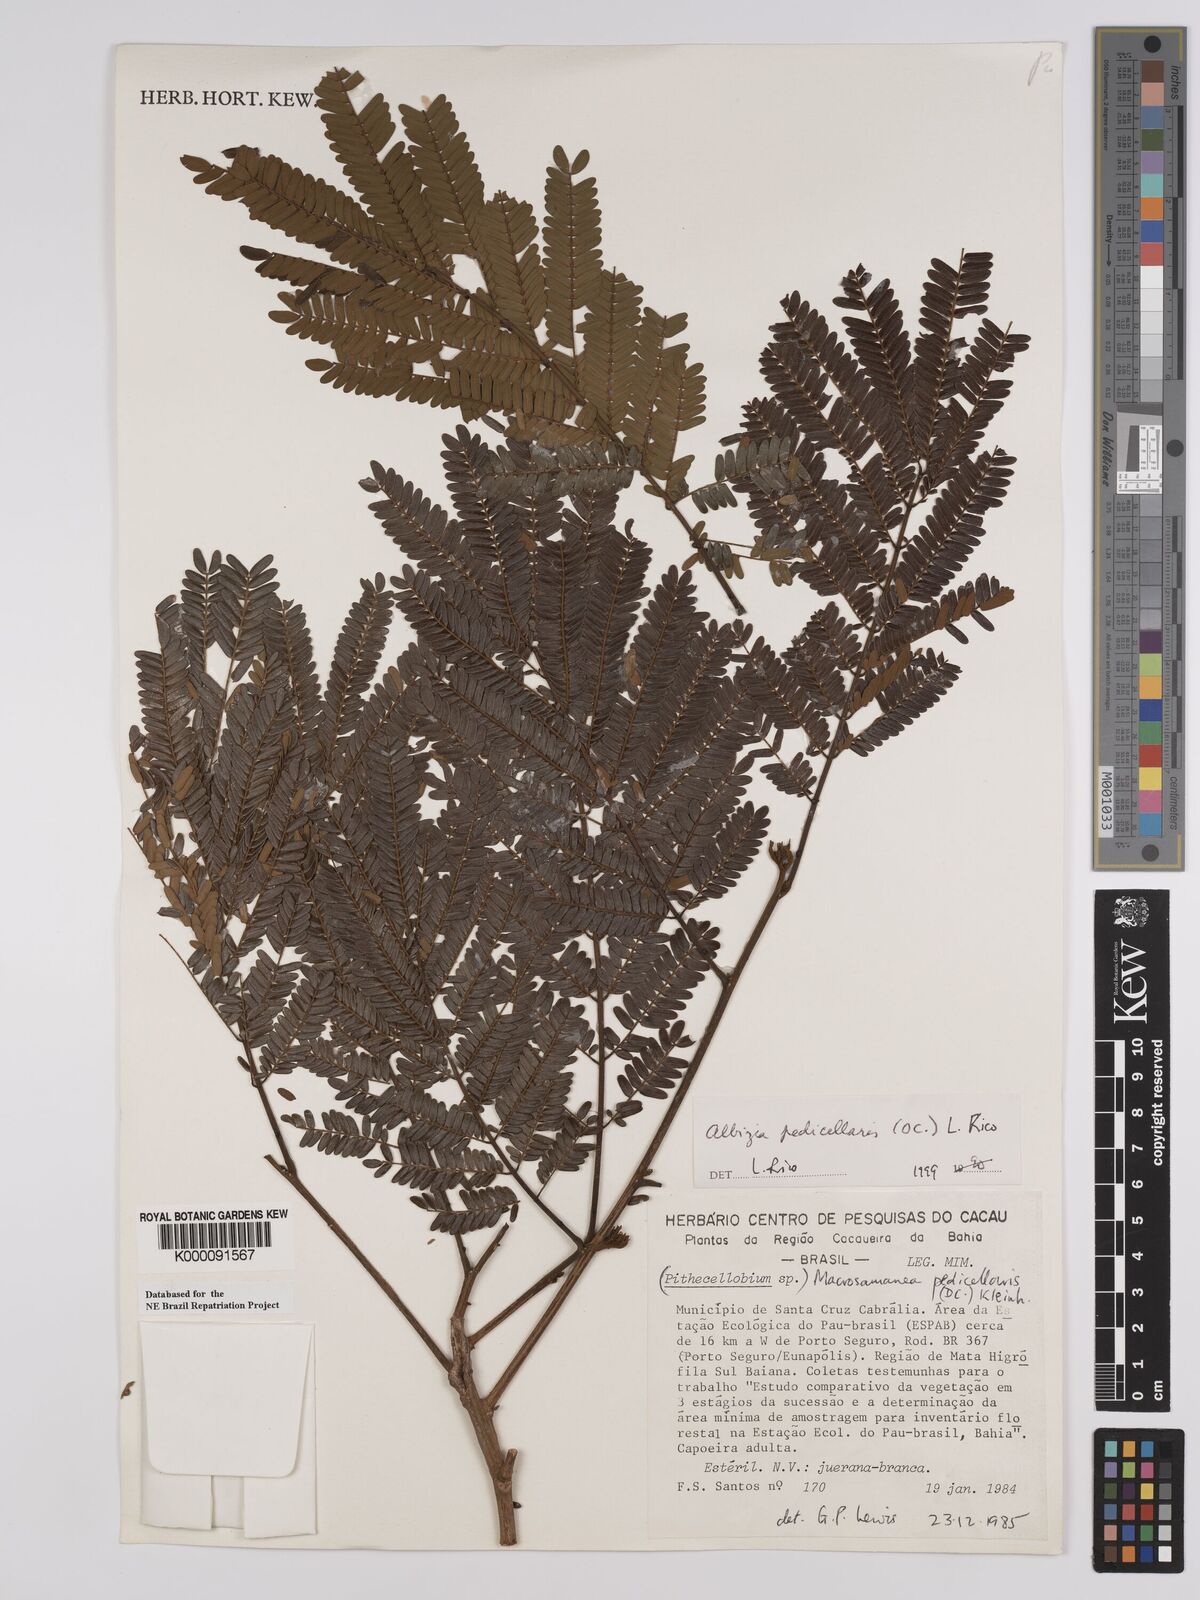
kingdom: Plantae
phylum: Tracheophyta
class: Magnoliopsida
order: Fabales
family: Fabaceae
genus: Balizia
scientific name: Balizia pedicellaris
